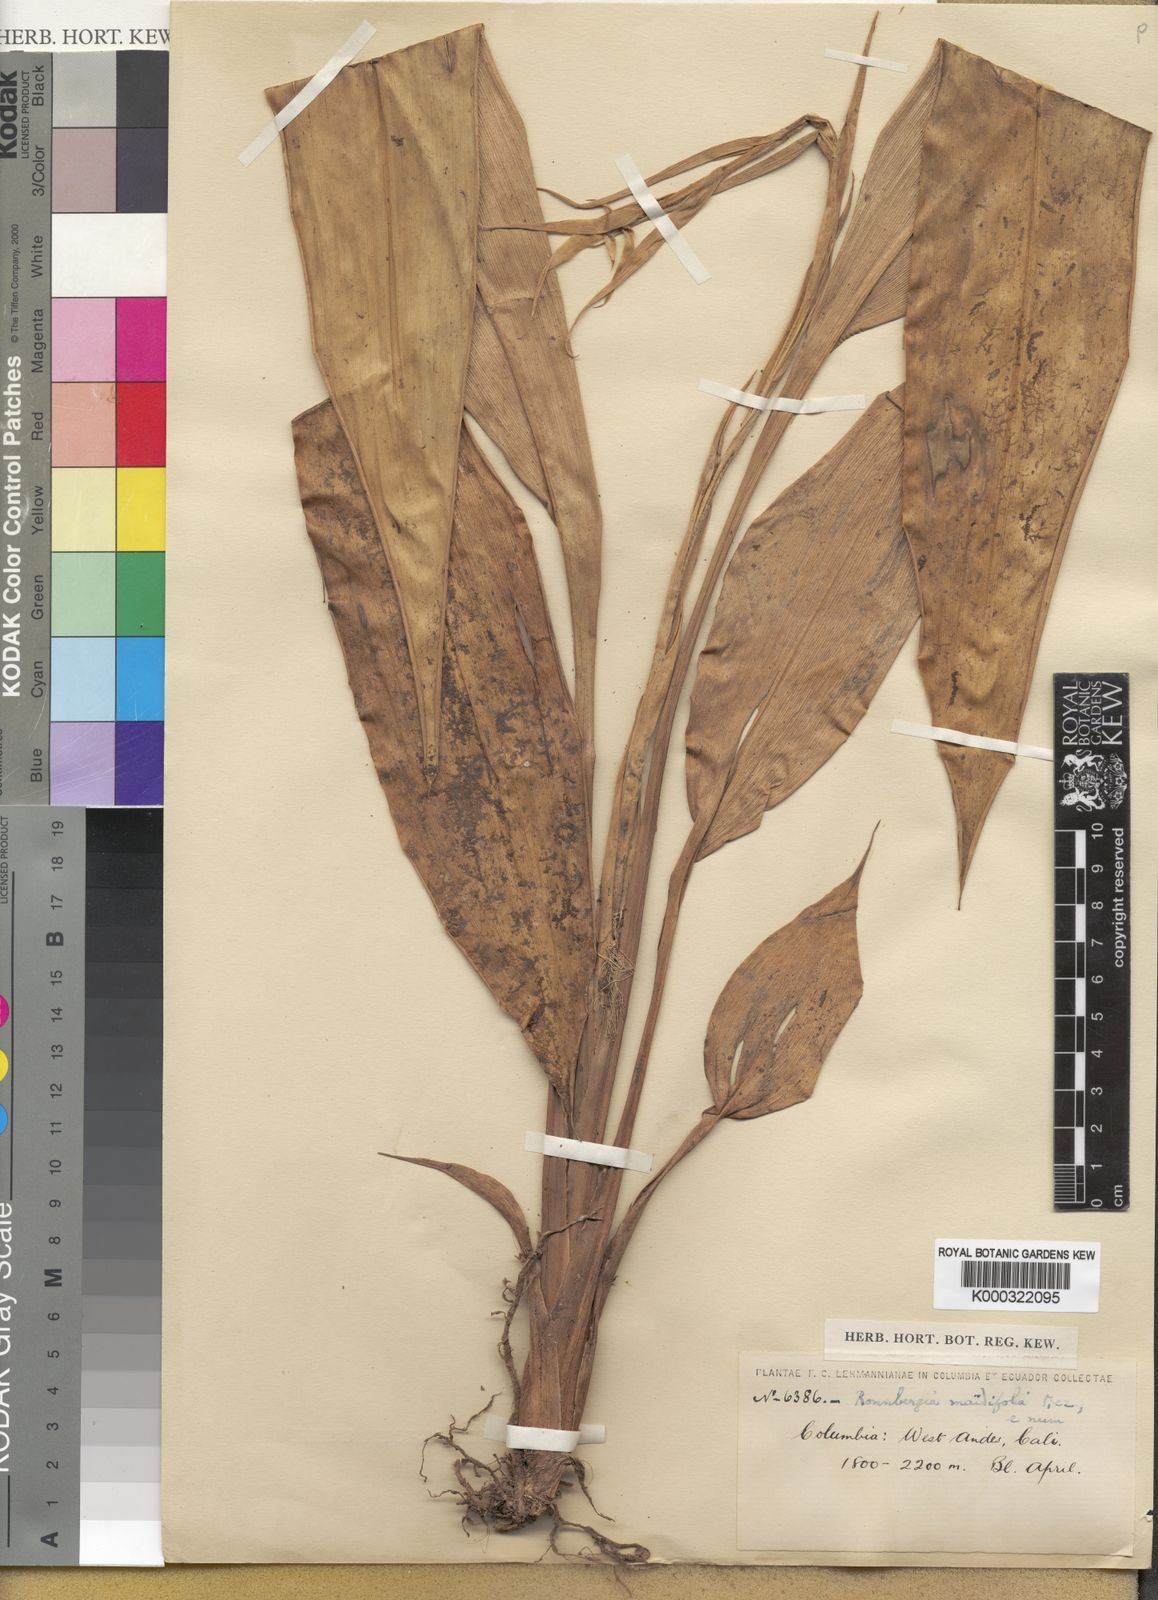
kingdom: Plantae
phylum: Tracheophyta
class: Liliopsida
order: Poales
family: Bromeliaceae
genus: Ronnbergia
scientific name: Ronnbergia maidifolia
